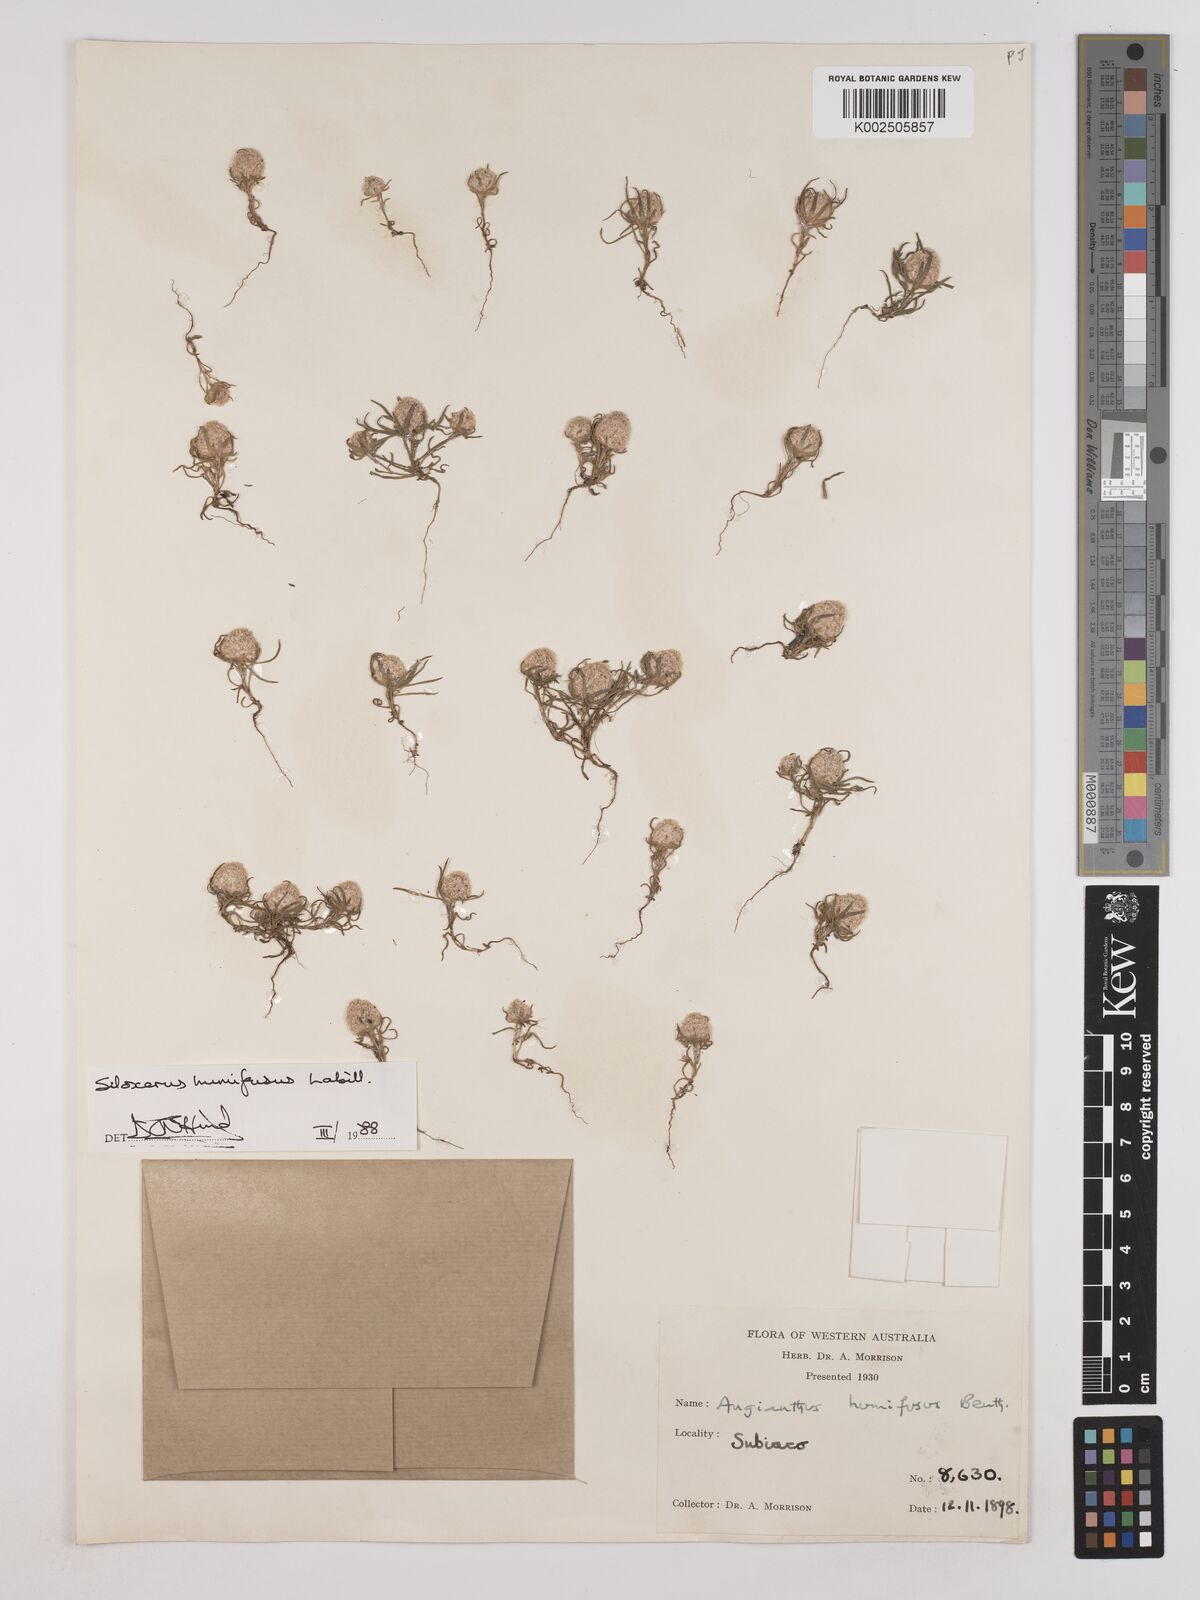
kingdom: Plantae
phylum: Tracheophyta
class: Magnoliopsida
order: Asterales
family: Asteraceae
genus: Siloxerus
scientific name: Siloxerus humifusus
